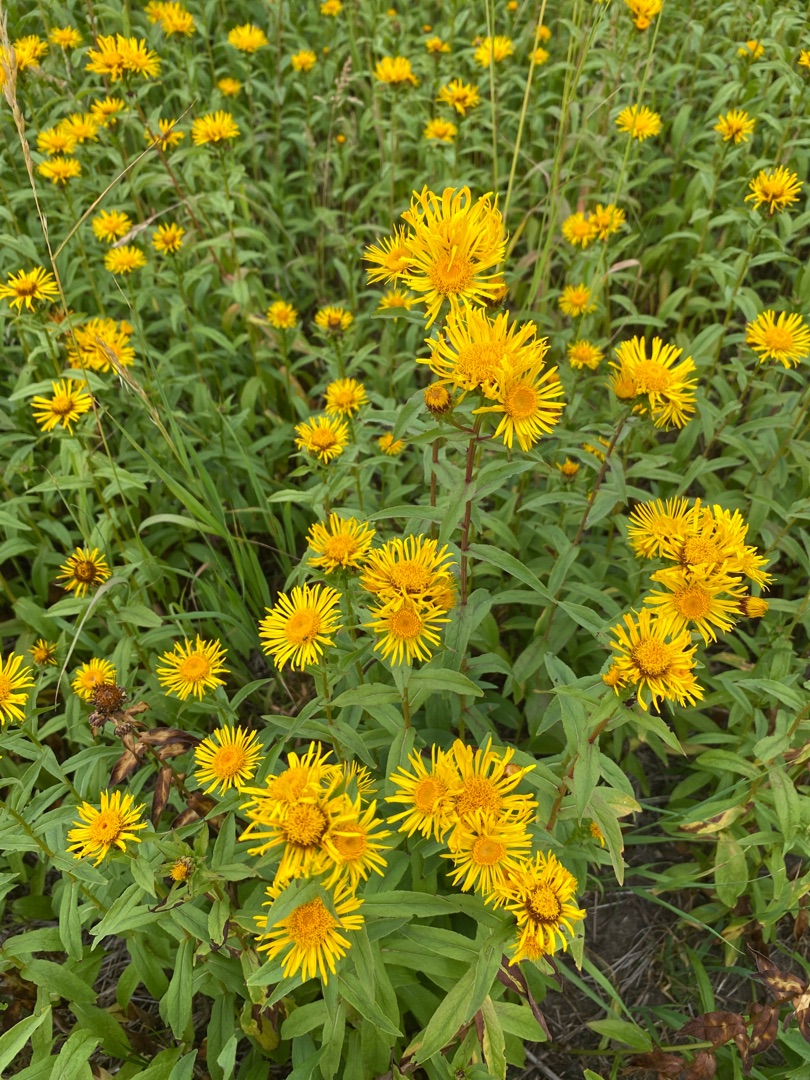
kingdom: Plantae
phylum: Tracheophyta
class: Magnoliopsida
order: Asterales
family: Asteraceae
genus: Pentanema
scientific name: Pentanema salicinum
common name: Pile-alant
